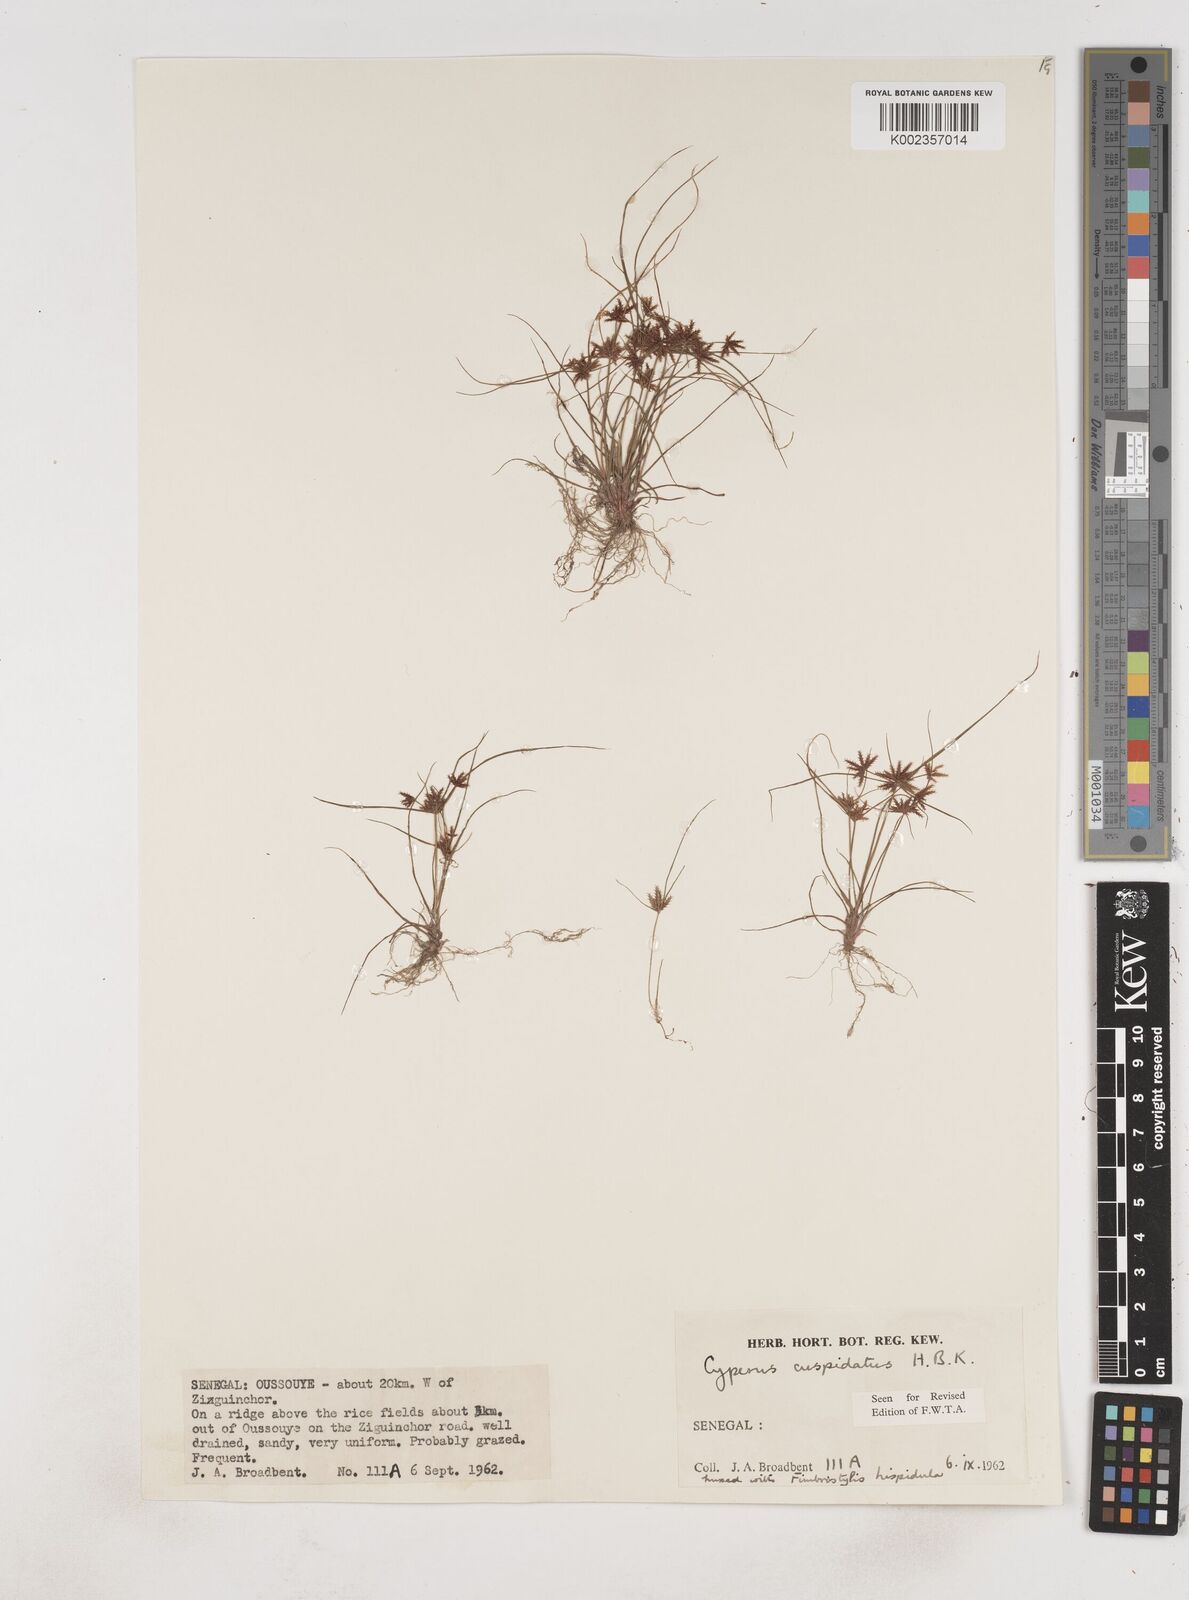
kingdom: Plantae
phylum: Tracheophyta
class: Liliopsida
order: Poales
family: Cyperaceae
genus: Cyperus
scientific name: Cyperus
